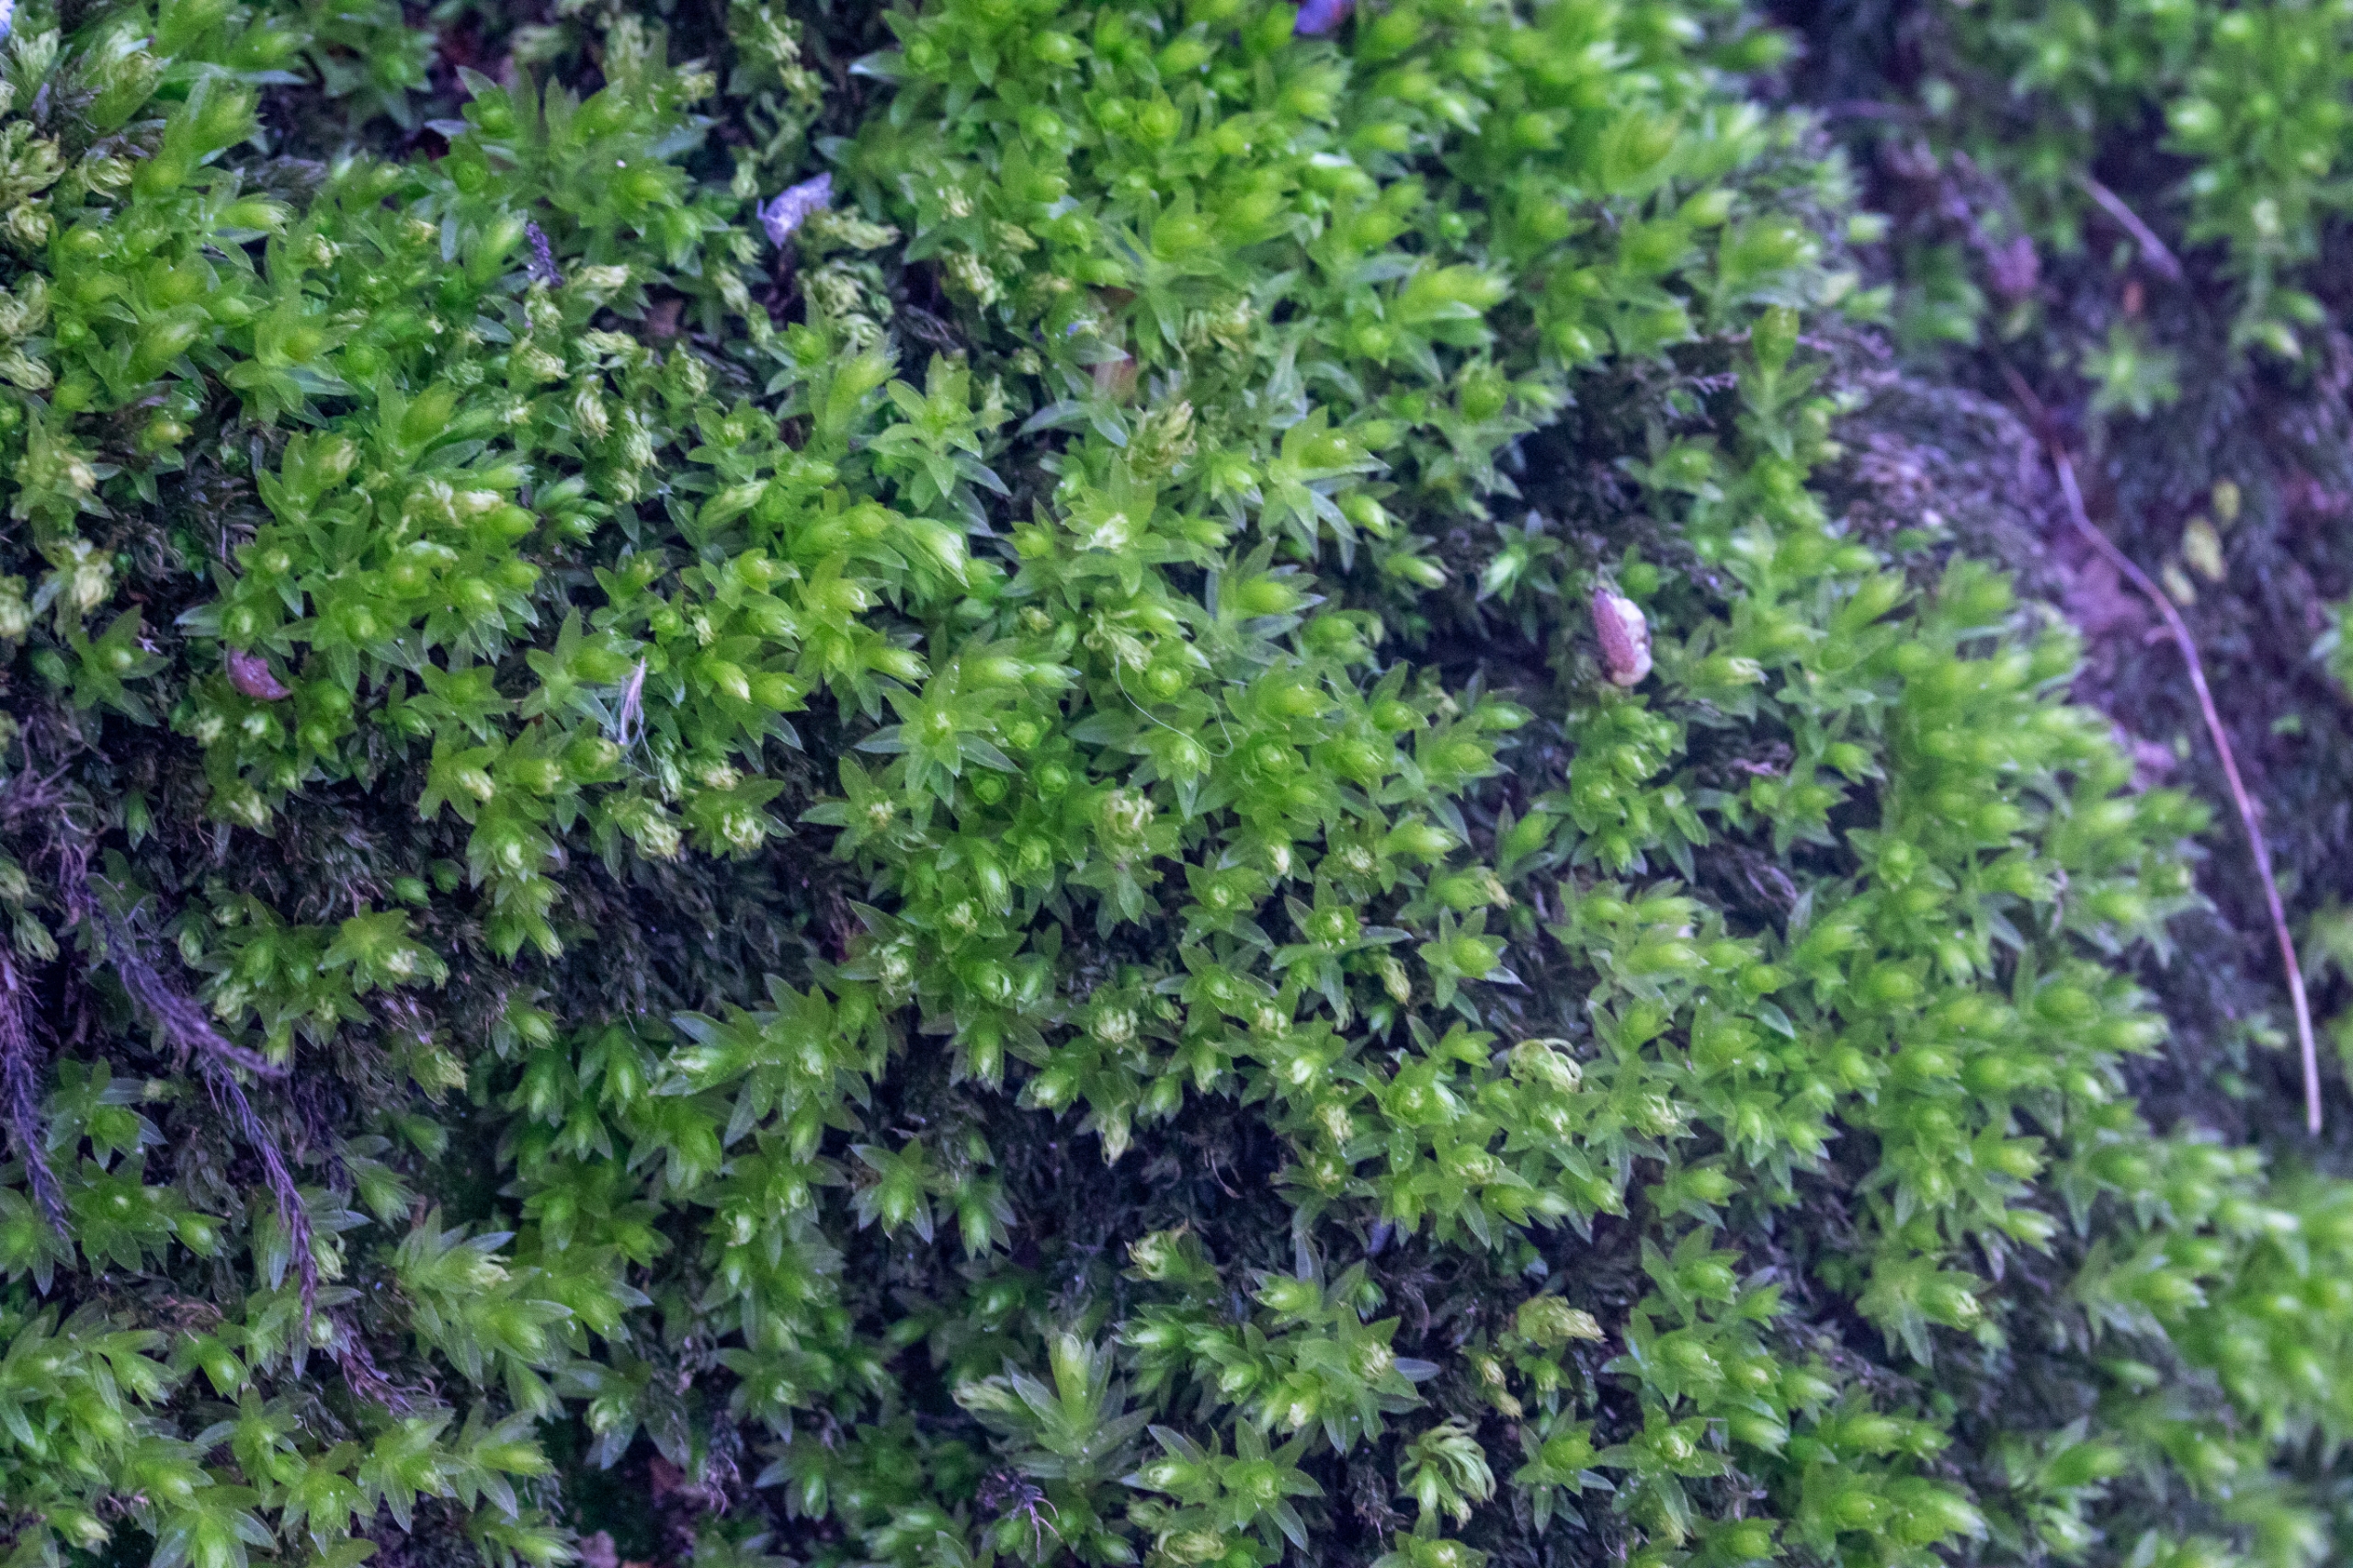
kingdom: Plantae
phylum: Bryophyta
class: Bryopsida
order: Bryales
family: Mniaceae
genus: Mnium
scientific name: Mnium hornum
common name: Brunfiltet stjernemos
